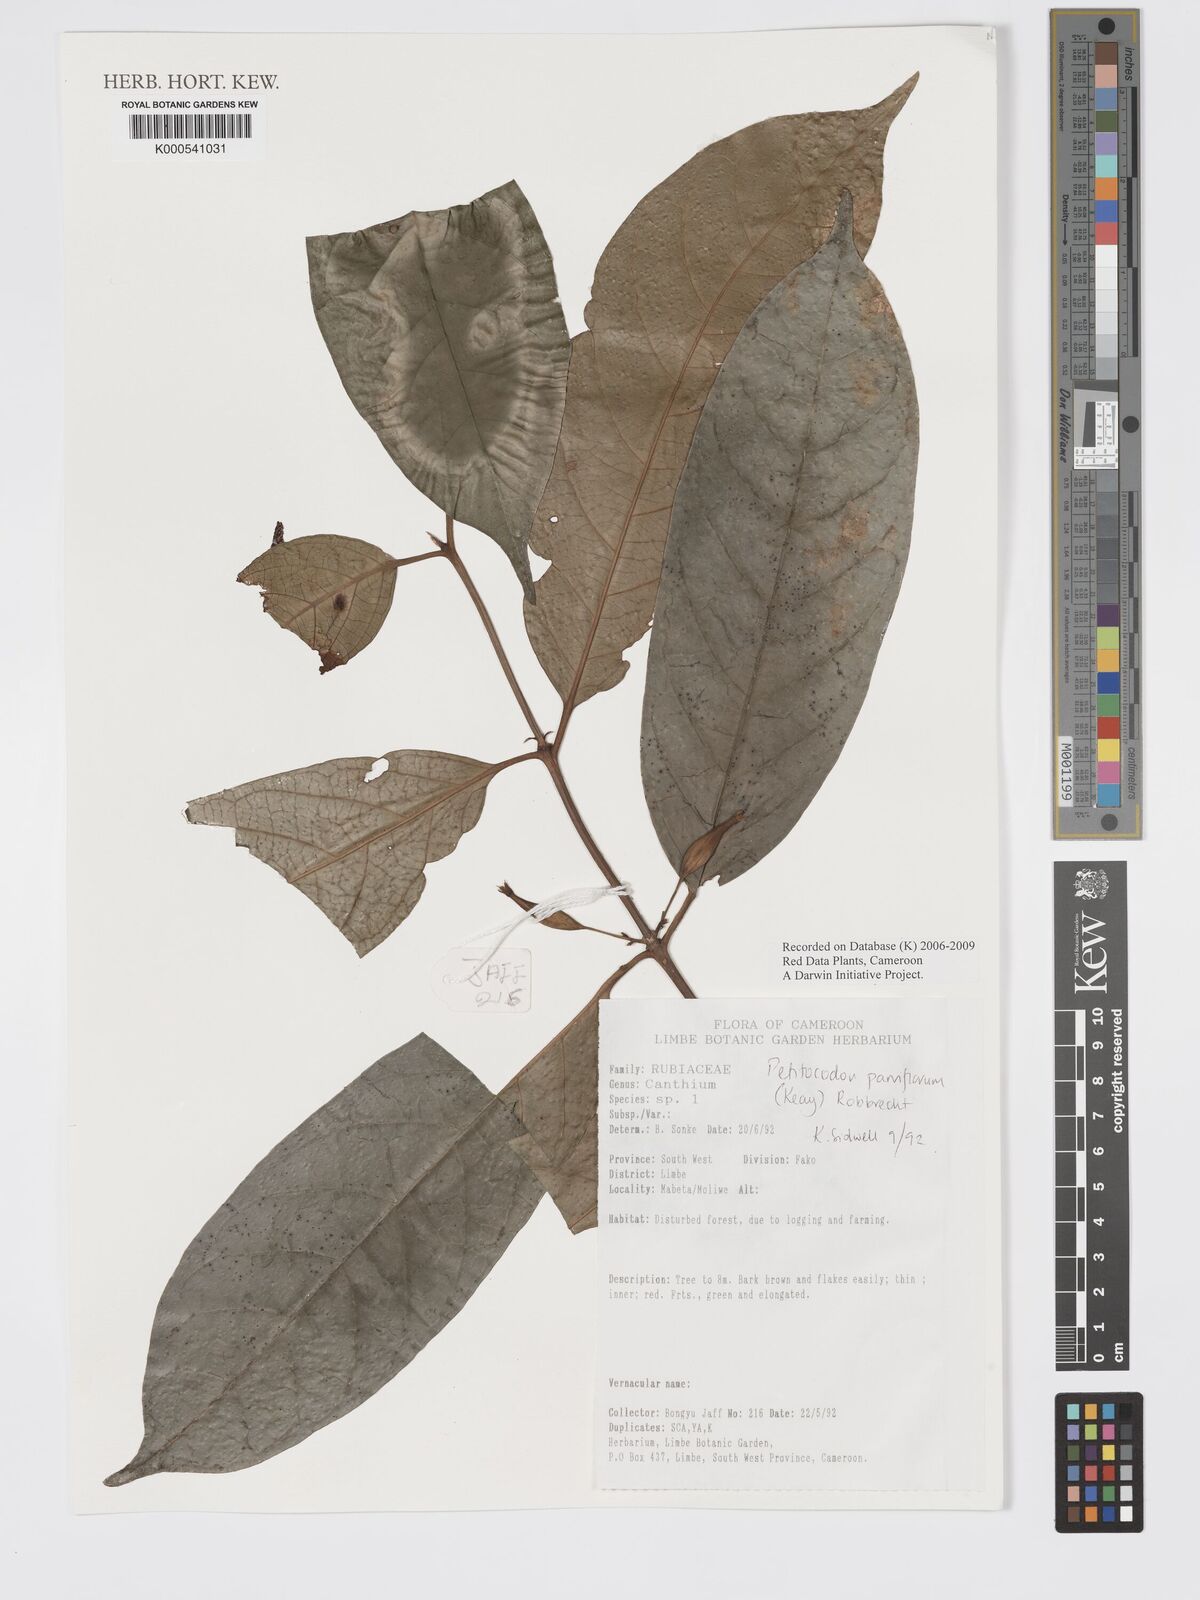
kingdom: Plantae
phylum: Tracheophyta
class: Magnoliopsida
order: Gentianales
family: Rubiaceae
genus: Petitiocodon
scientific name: Petitiocodon parviflorum
